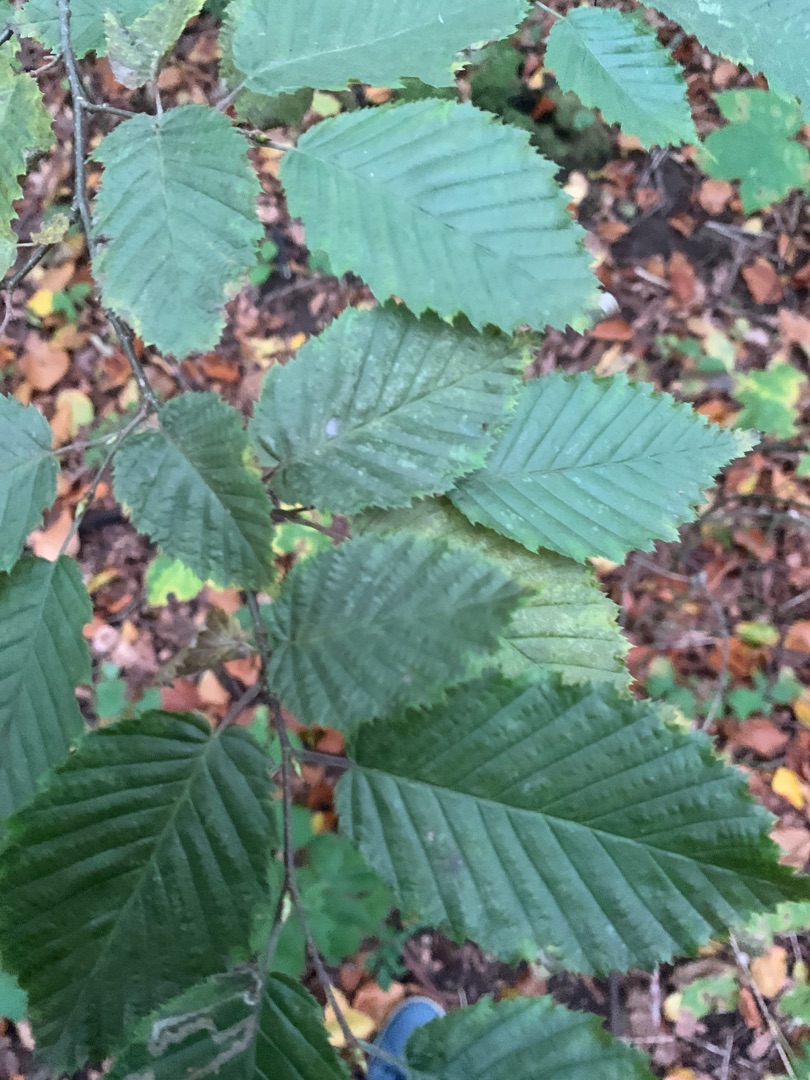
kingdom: Plantae
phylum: Tracheophyta
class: Magnoliopsida
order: Fagales
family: Betulaceae
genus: Carpinus
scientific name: Carpinus betulus
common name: Avnbøg
